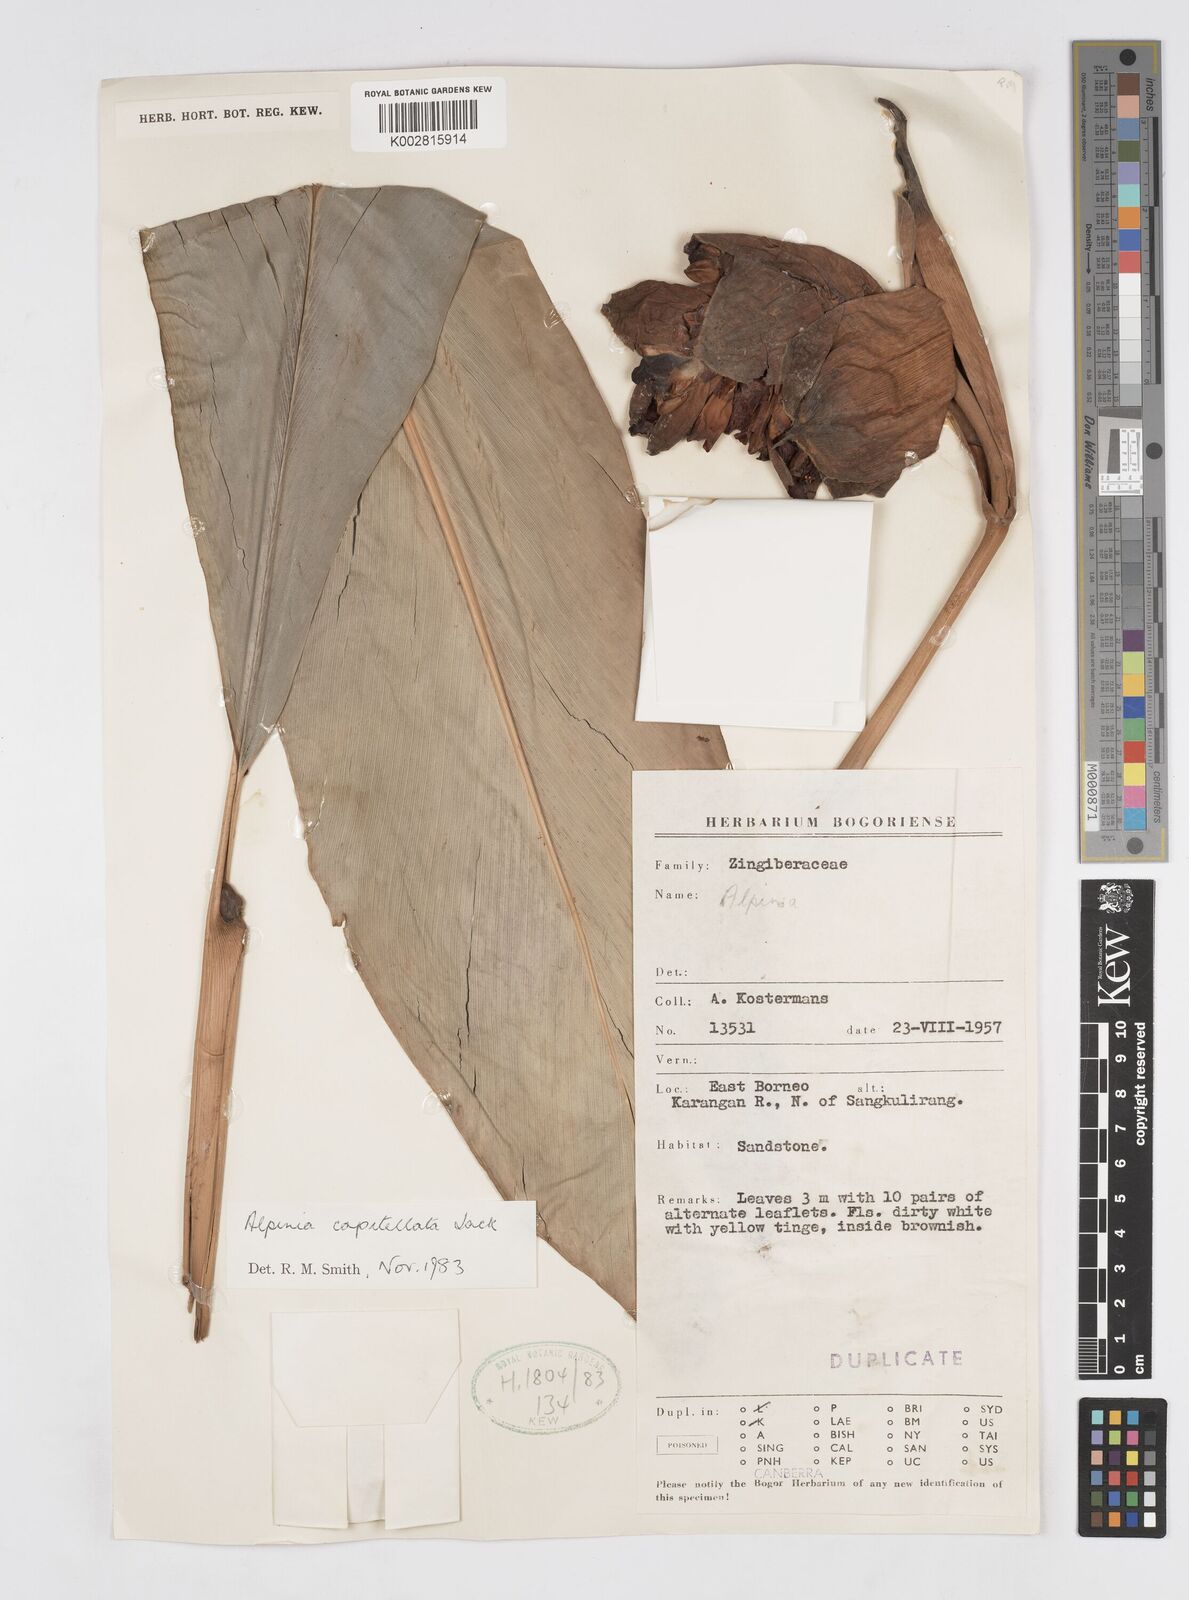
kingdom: Plantae
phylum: Tracheophyta
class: Liliopsida
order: Zingiberales
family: Zingiberaceae
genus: Alpinia
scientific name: Alpinia capitellata
